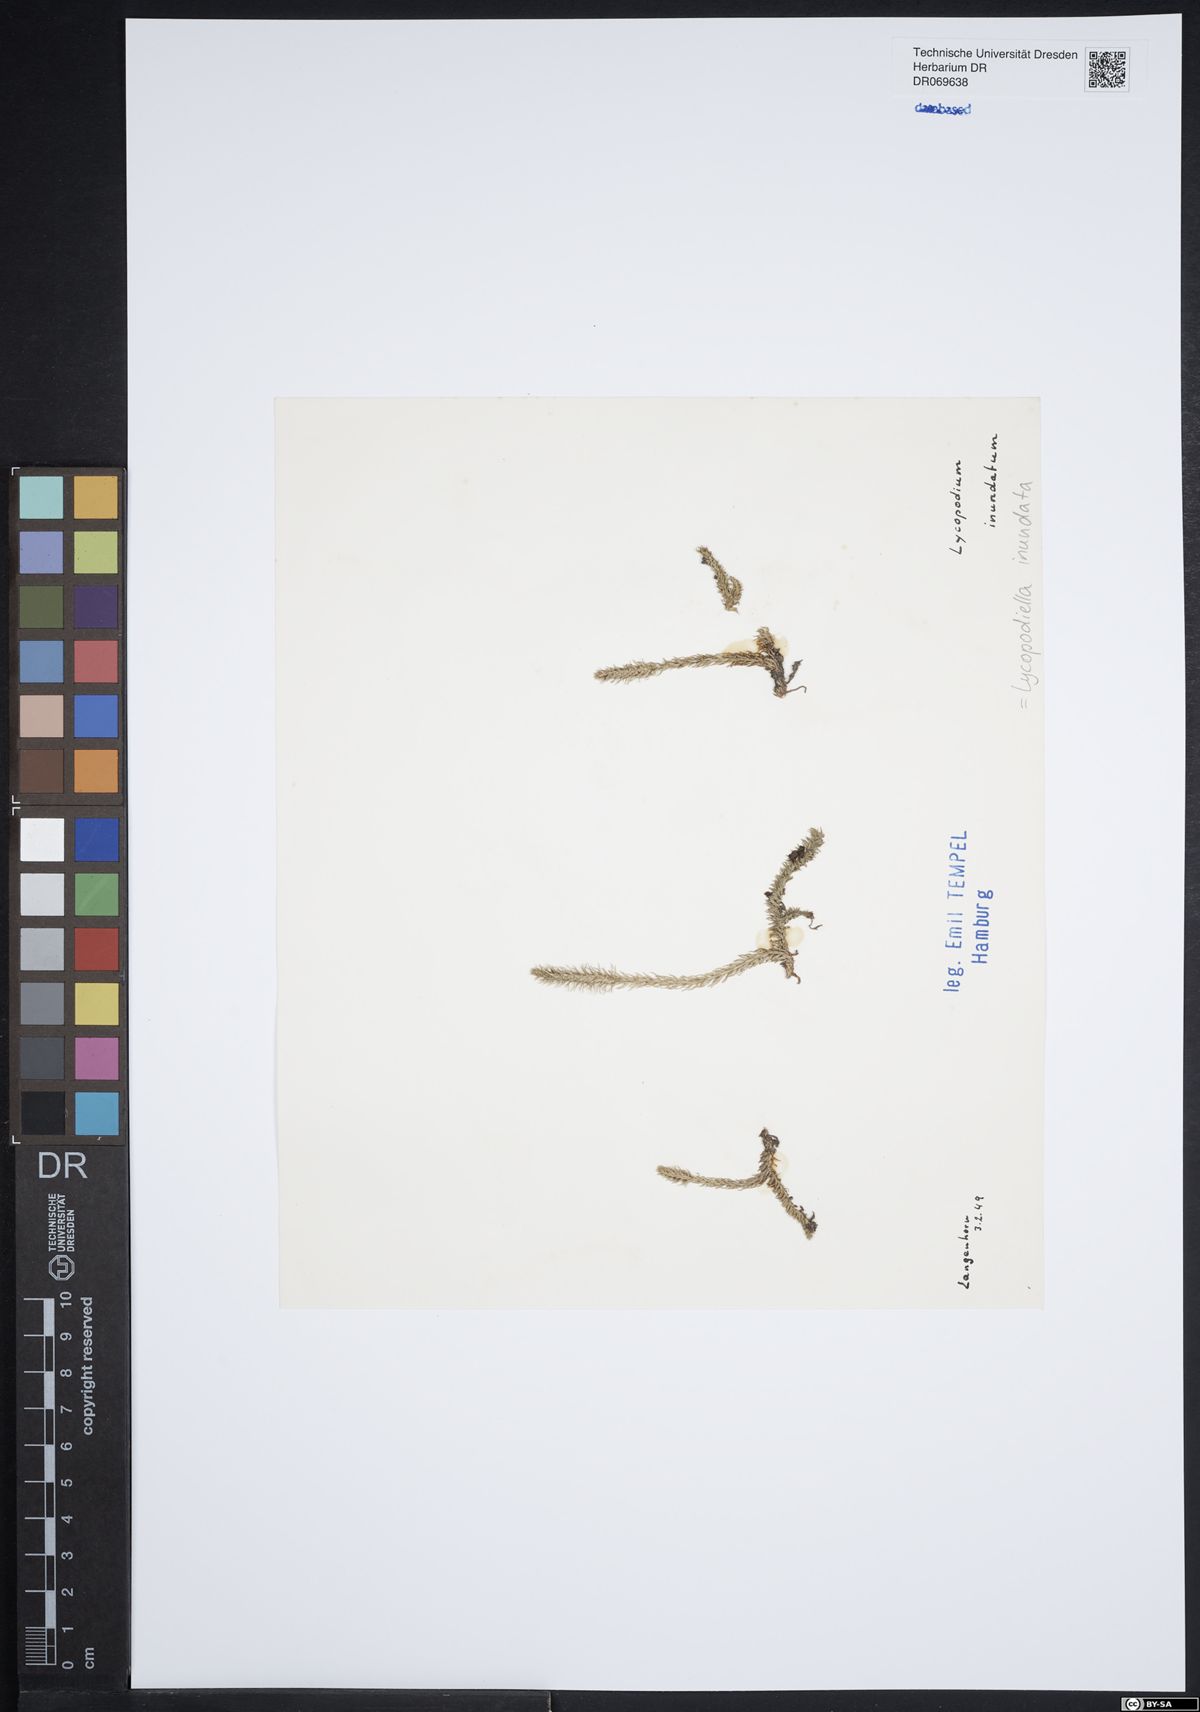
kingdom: Plantae
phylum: Tracheophyta
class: Lycopodiopsida
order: Lycopodiales
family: Lycopodiaceae
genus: Lycopodiella
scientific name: Lycopodiella inundata
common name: Marsh clubmoss
